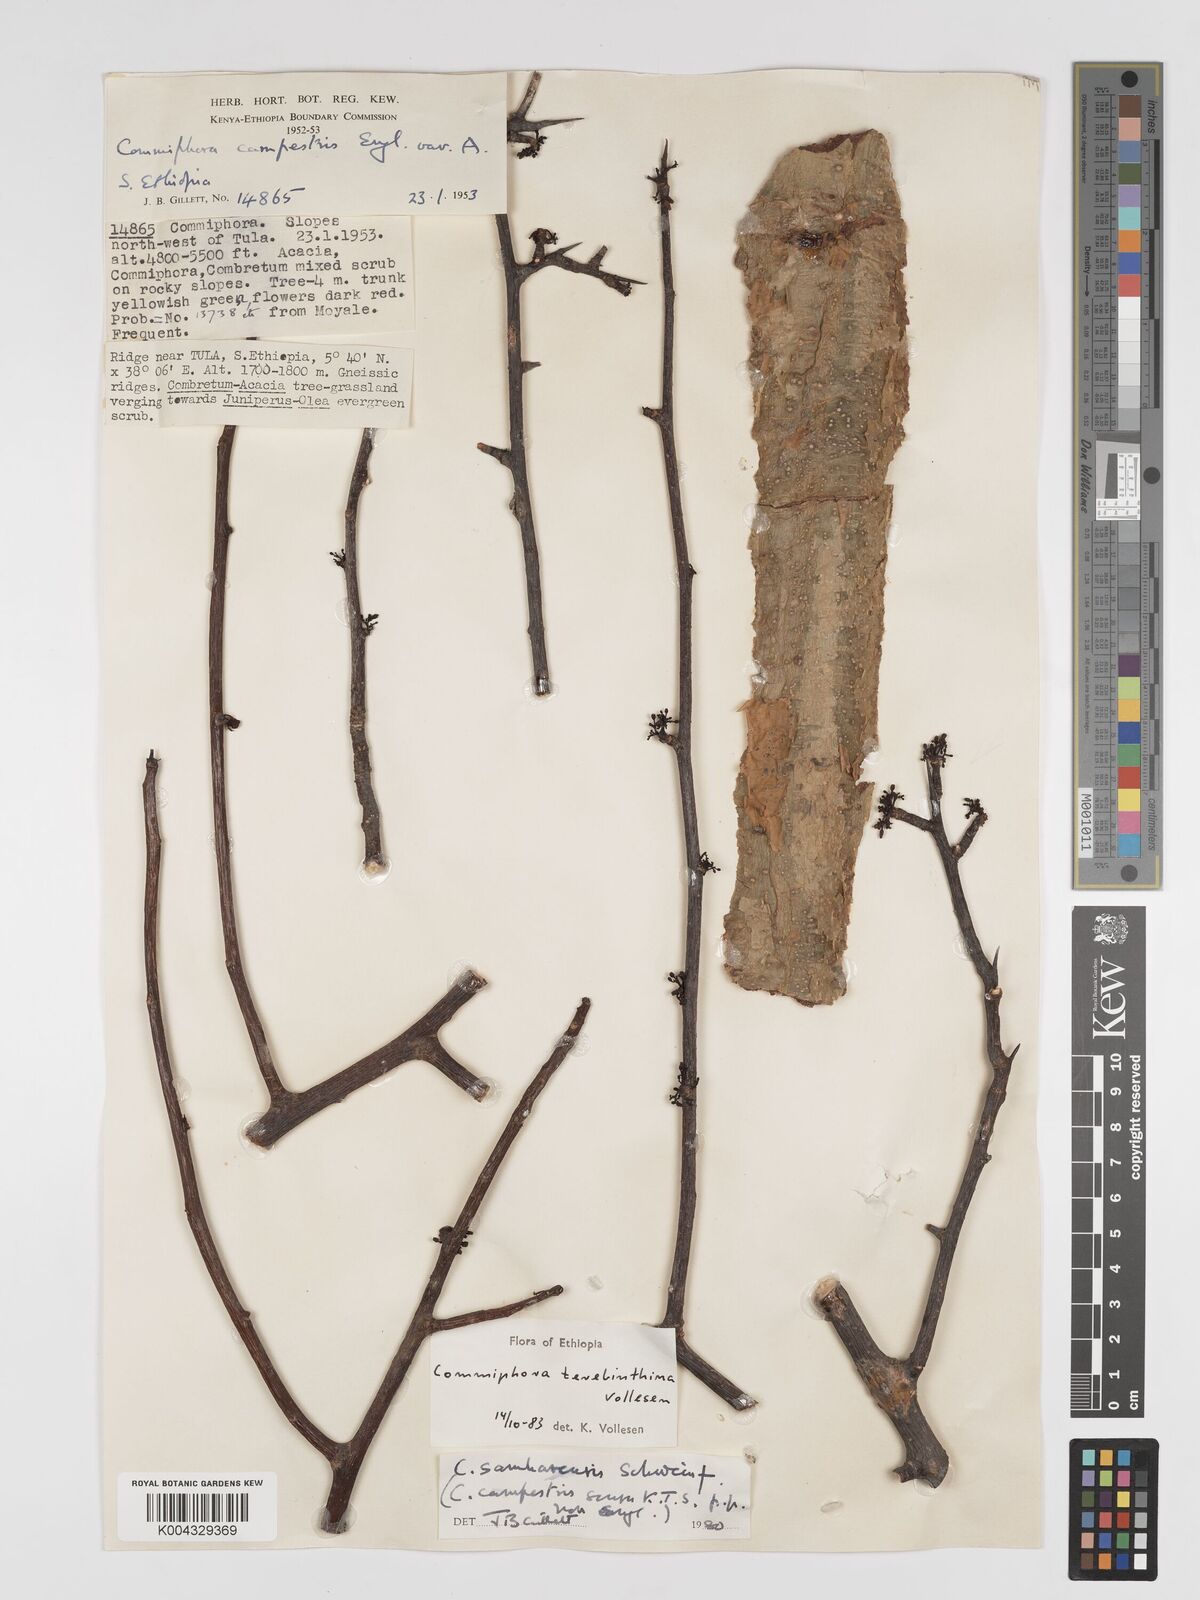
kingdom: Plantae
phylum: Tracheophyta
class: Magnoliopsida
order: Sapindales
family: Burseraceae
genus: Commiphora
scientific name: Commiphora samharensis
